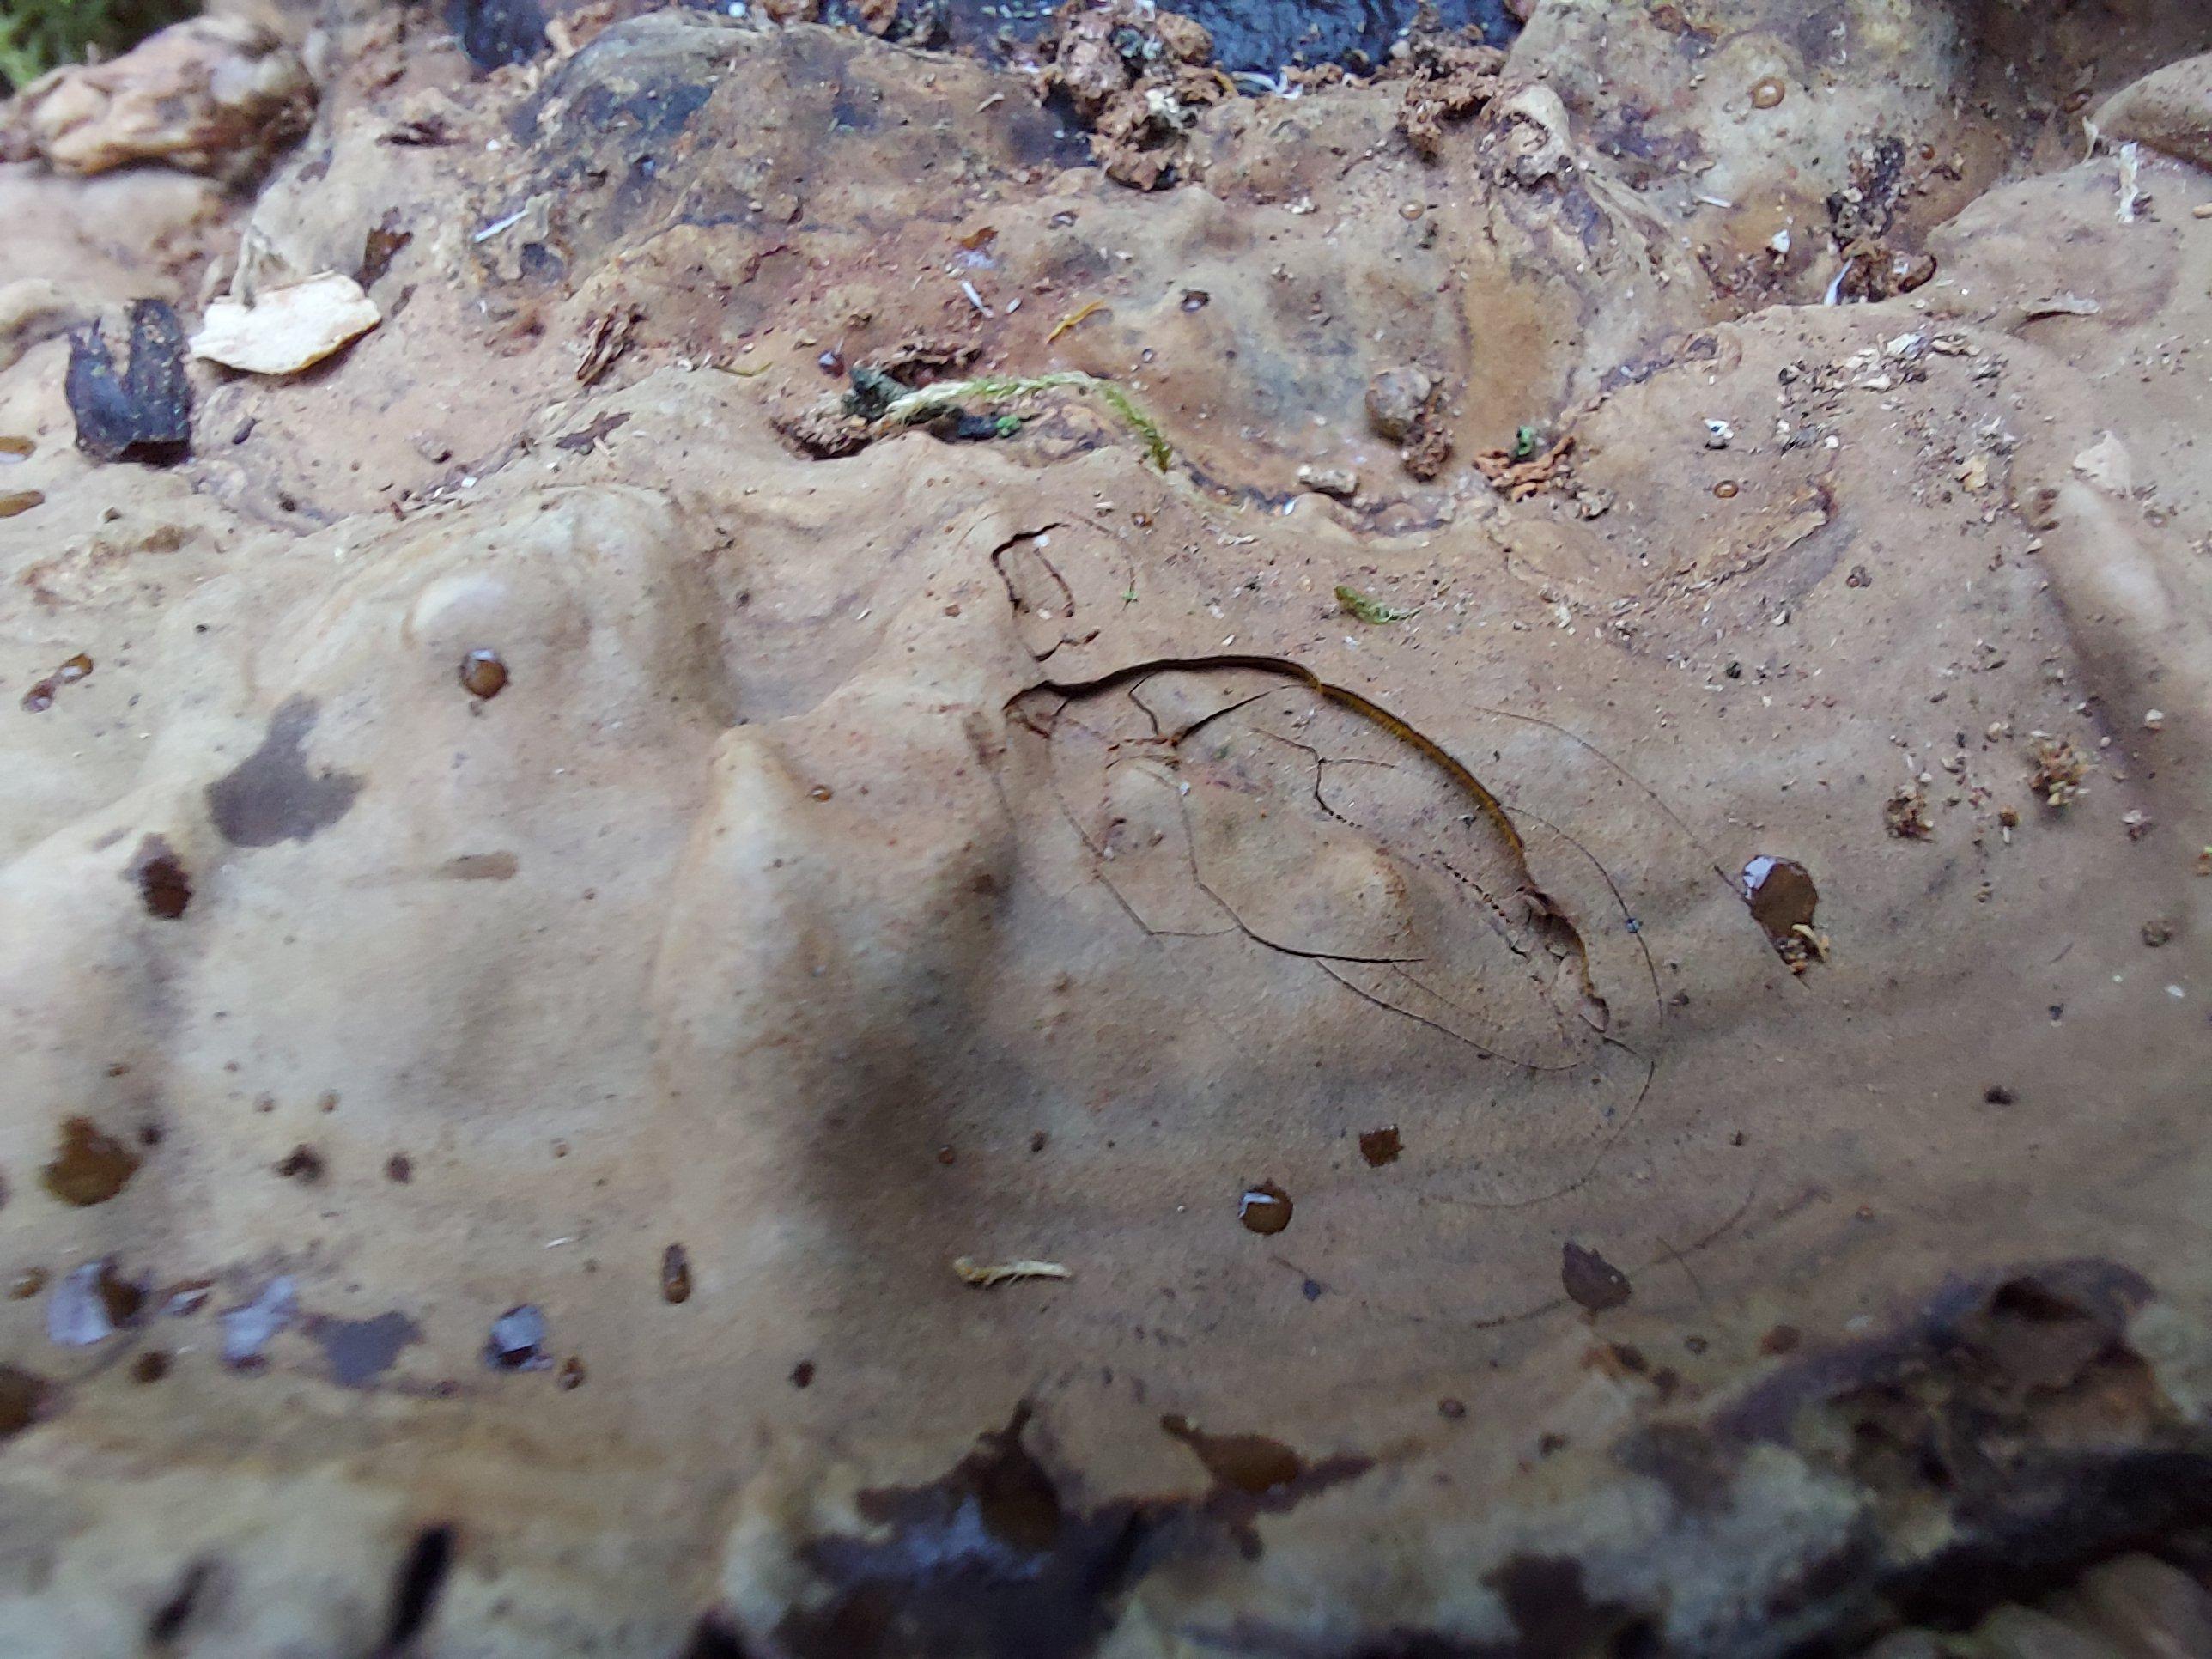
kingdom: Fungi
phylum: Basidiomycota
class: Agaricomycetes
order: Polyporales
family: Polyporaceae
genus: Ganoderma
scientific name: Ganoderma applanatum
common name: flad lakporesvamp
